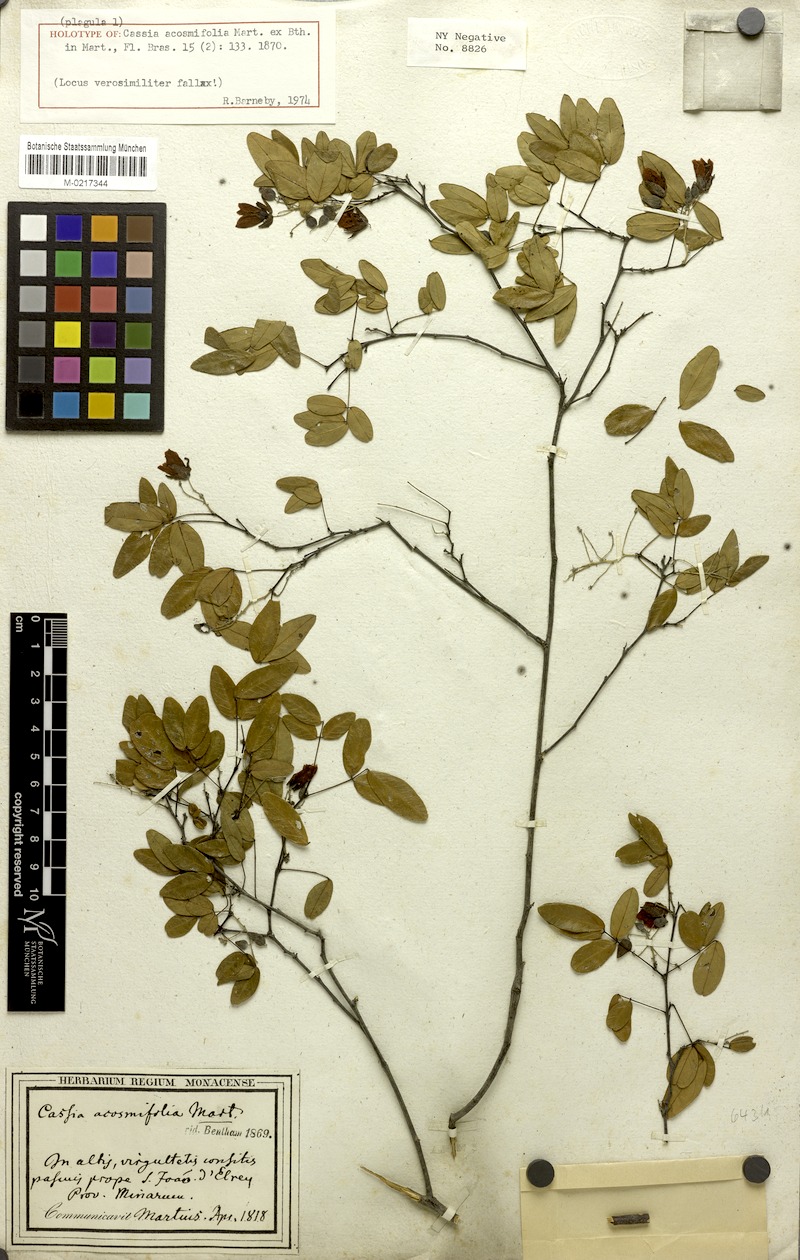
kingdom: Plantae
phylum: Tracheophyta
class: Magnoliopsida
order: Fabales
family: Fabaceae
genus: Chamaecrista
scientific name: Chamaecrista acosmifolia
